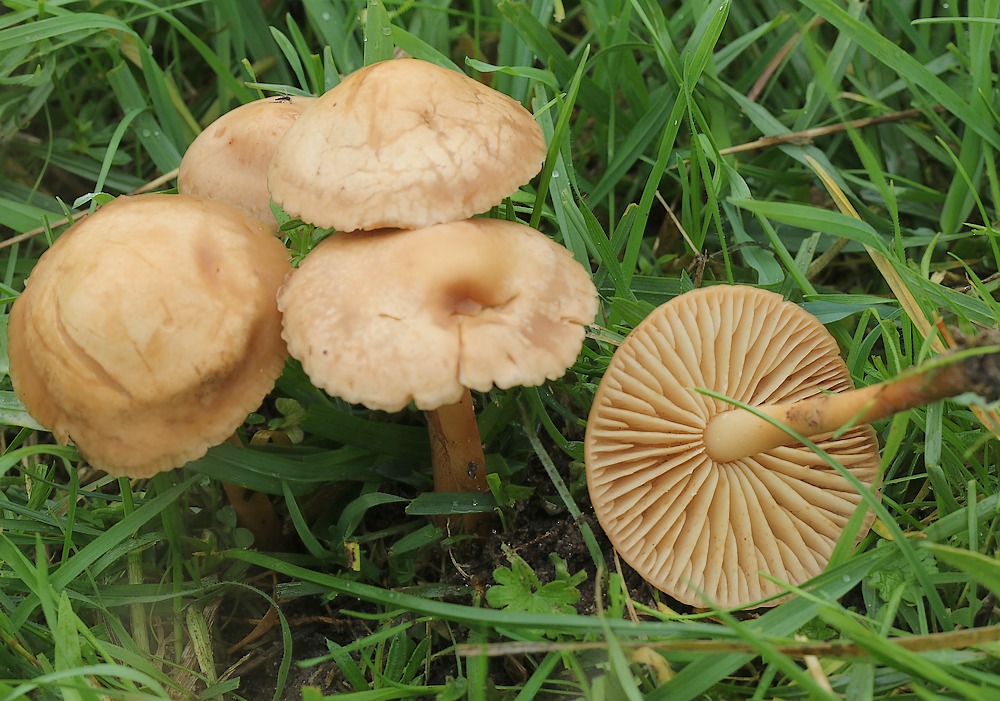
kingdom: Fungi
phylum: Basidiomycota
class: Agaricomycetes
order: Agaricales
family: Marasmiaceae
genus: Marasmius
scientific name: Marasmius oreades
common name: elledans-bruskhat
